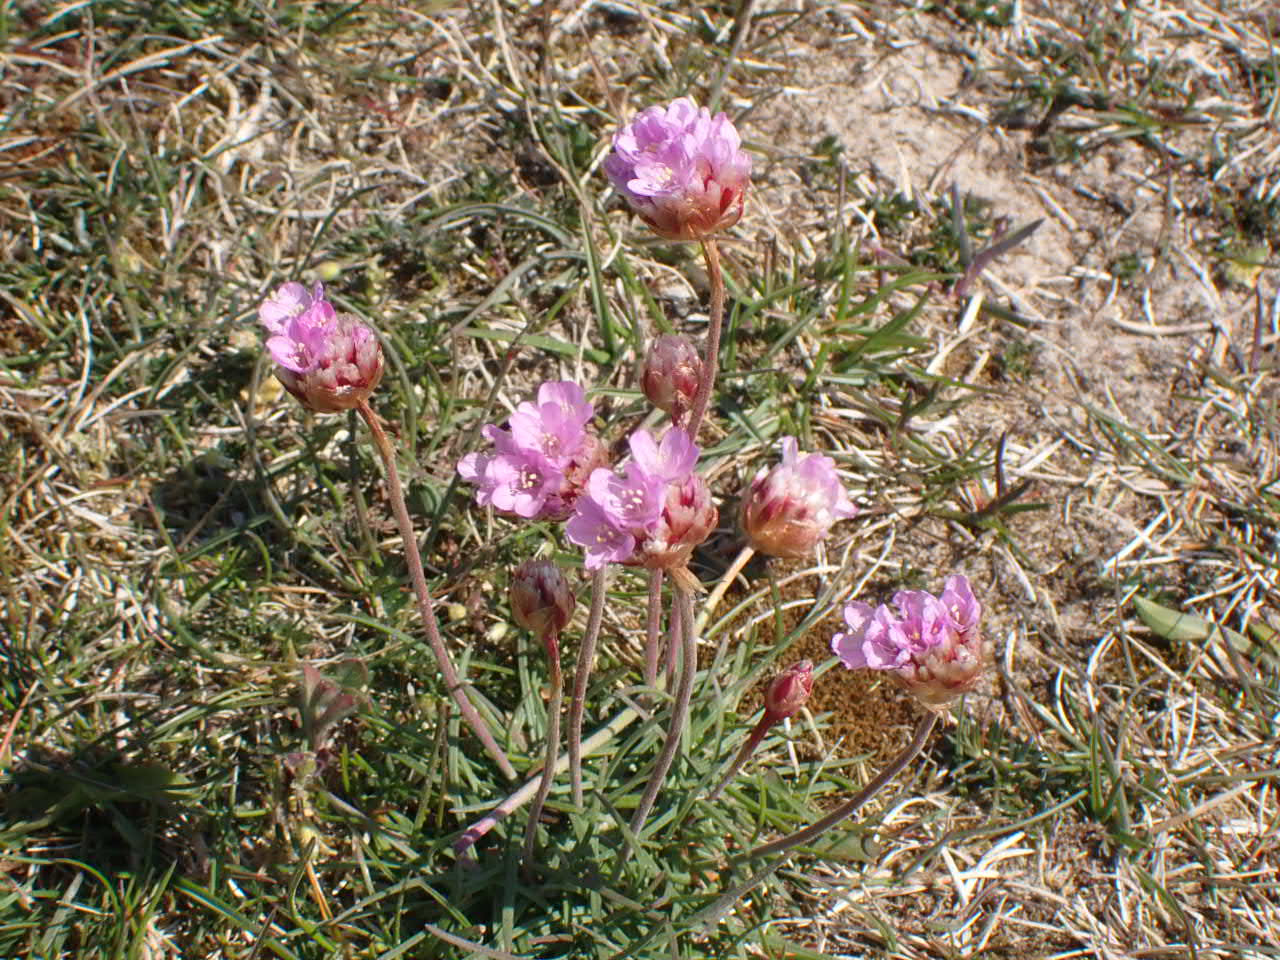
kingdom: Plantae
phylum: Tracheophyta
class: Magnoliopsida
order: Caryophyllales
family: Plumbaginaceae
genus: Armeria
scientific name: Armeria maritima
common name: Engelskgræs
